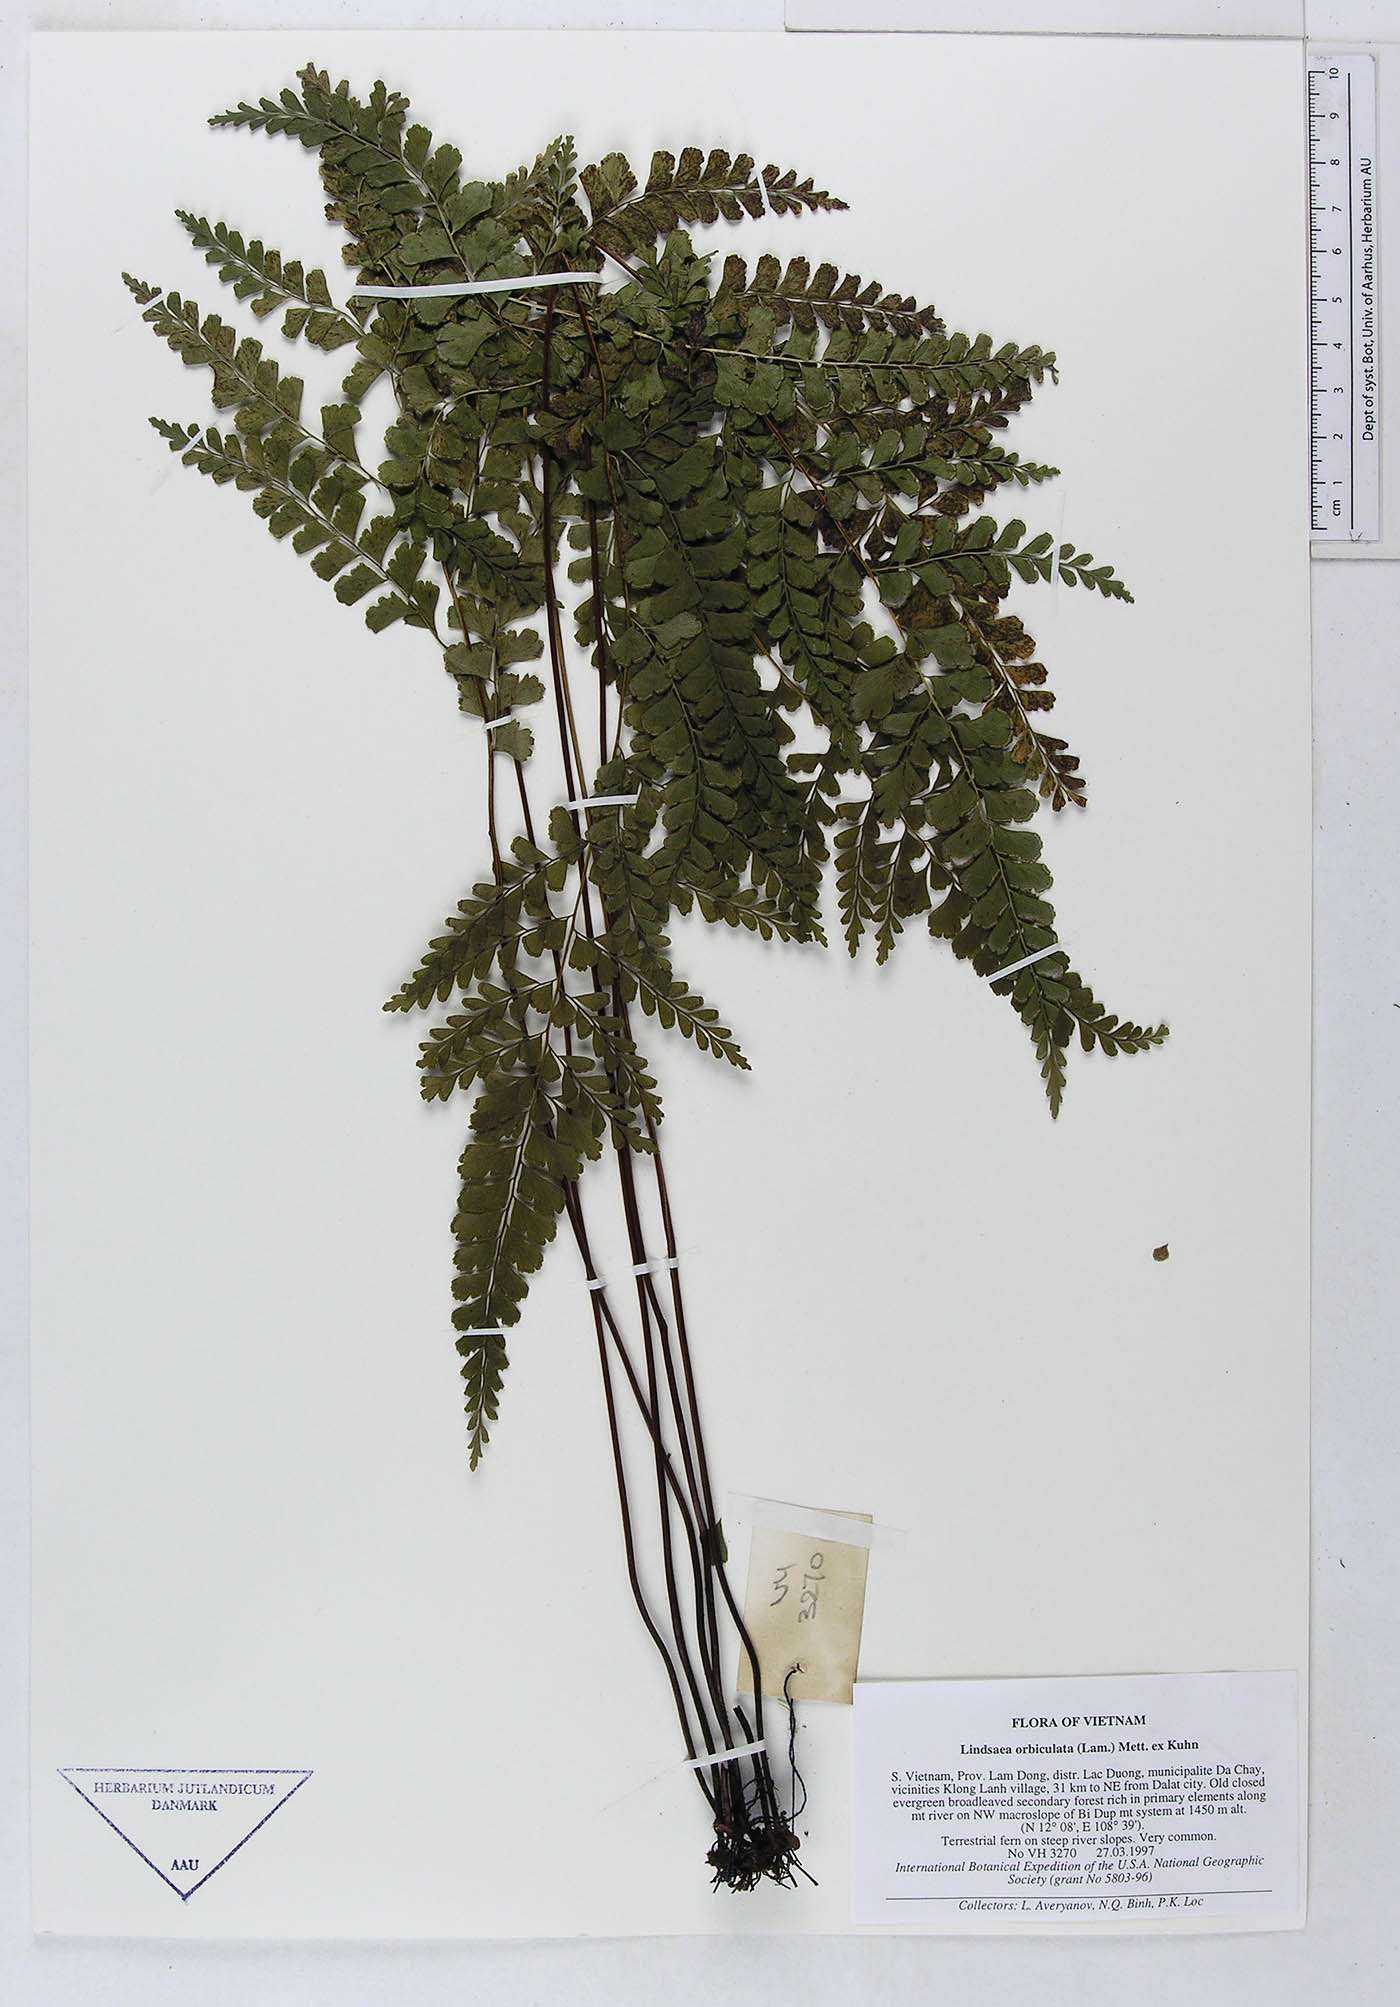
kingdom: Plantae
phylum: Tracheophyta
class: Polypodiopsida
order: Polypodiales
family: Lindsaeaceae
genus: Lindsaea
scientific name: Lindsaea orbiculata
